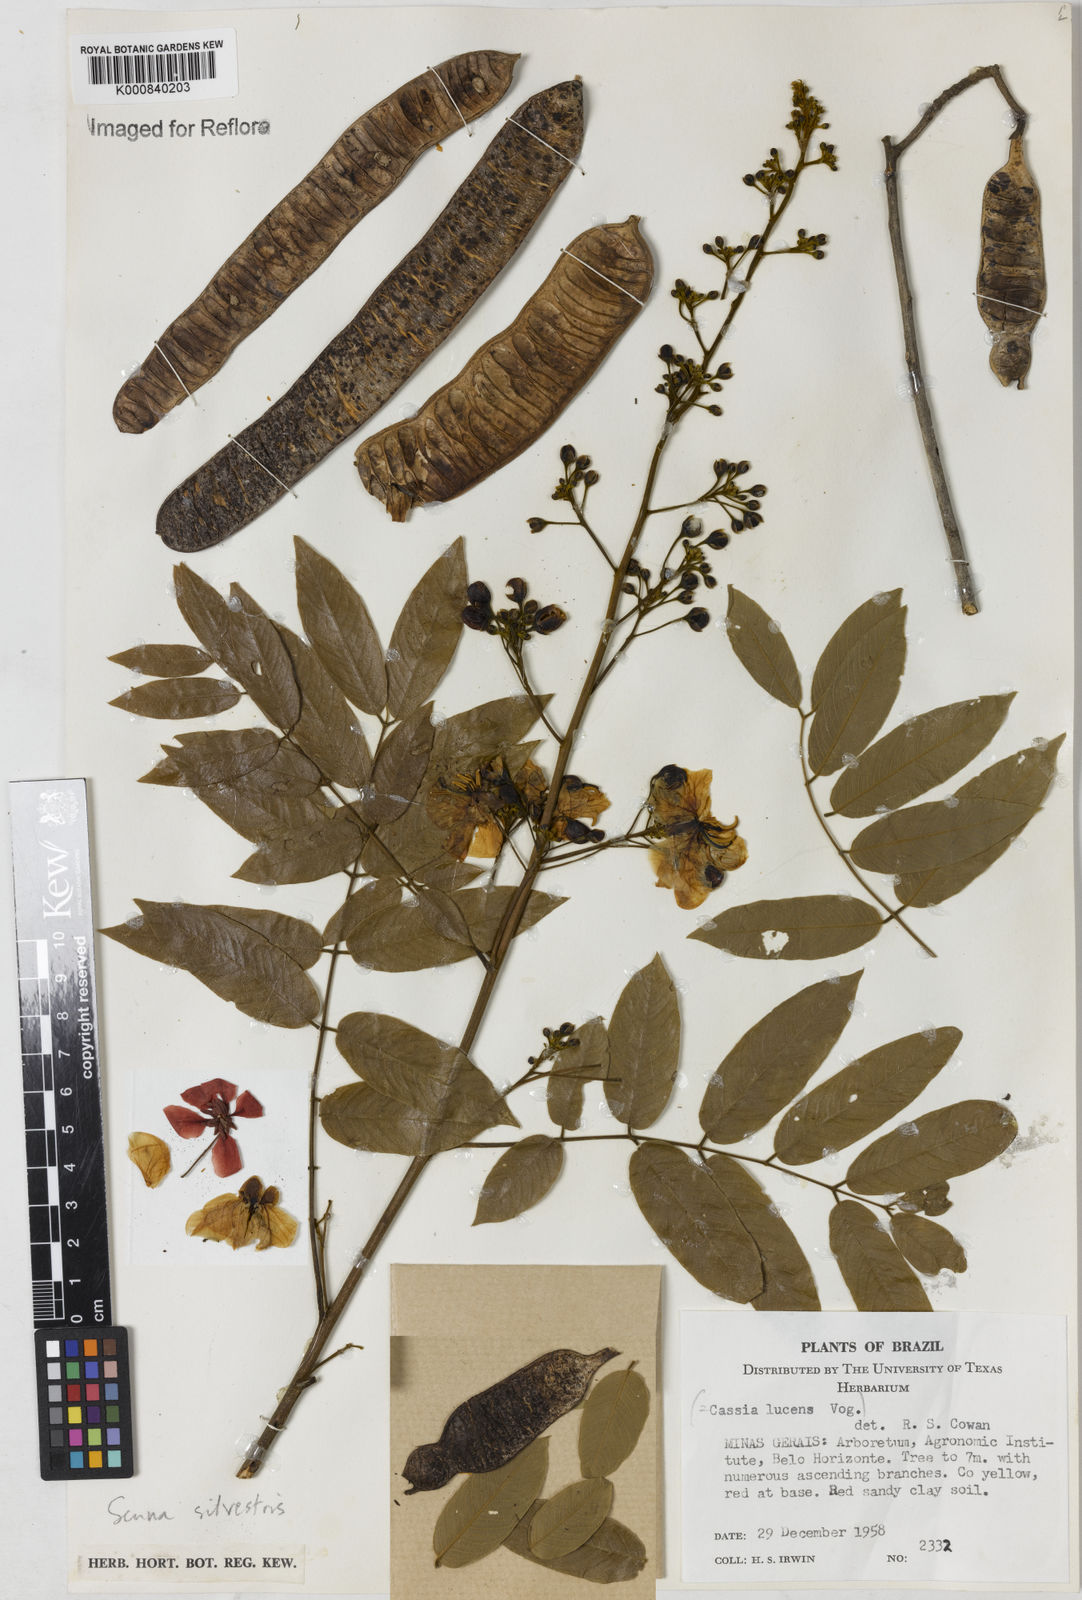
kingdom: Plantae
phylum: Tracheophyta
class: Magnoliopsida
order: Fabales
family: Fabaceae
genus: Senna
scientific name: Senna silvestris
